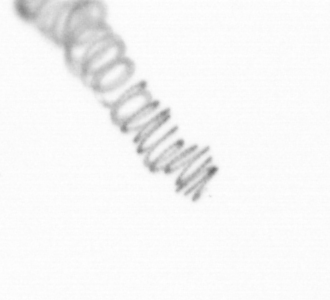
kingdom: Chromista
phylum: Ochrophyta
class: Bacillariophyceae
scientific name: Bacillariophyceae
